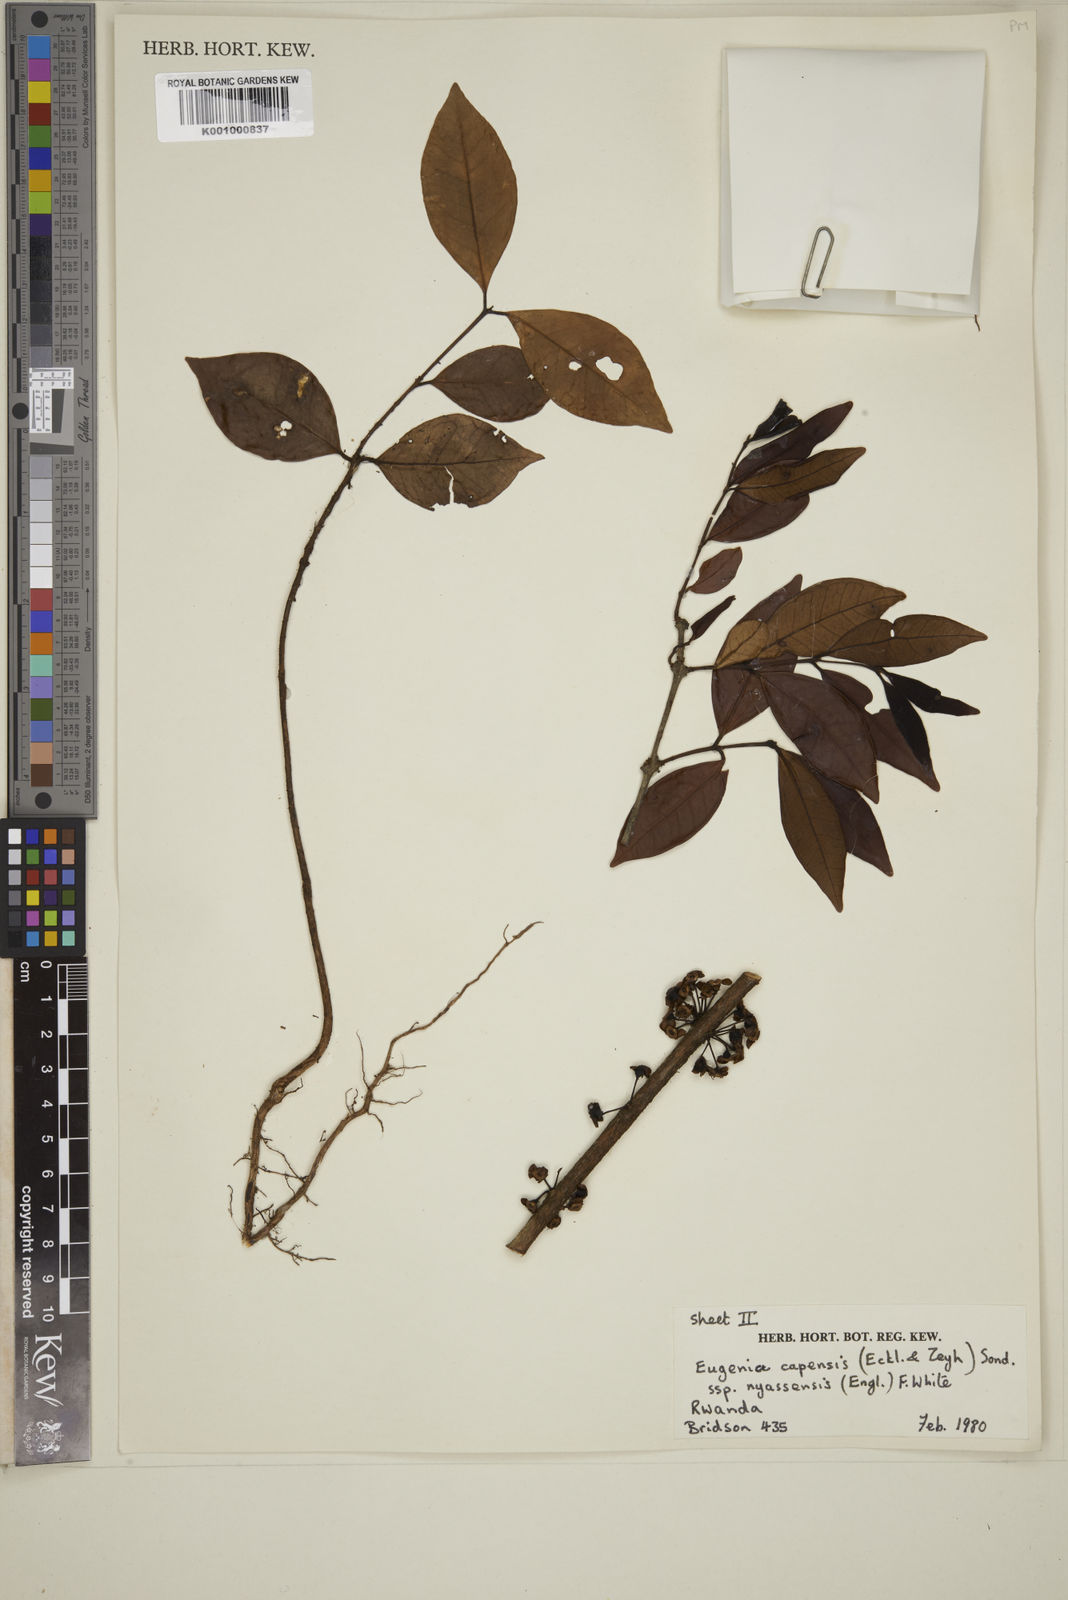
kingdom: Plantae
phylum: Tracheophyta
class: Magnoliopsida
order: Myrtales
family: Myrtaceae
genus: Eugenia
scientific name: Eugenia capensis
